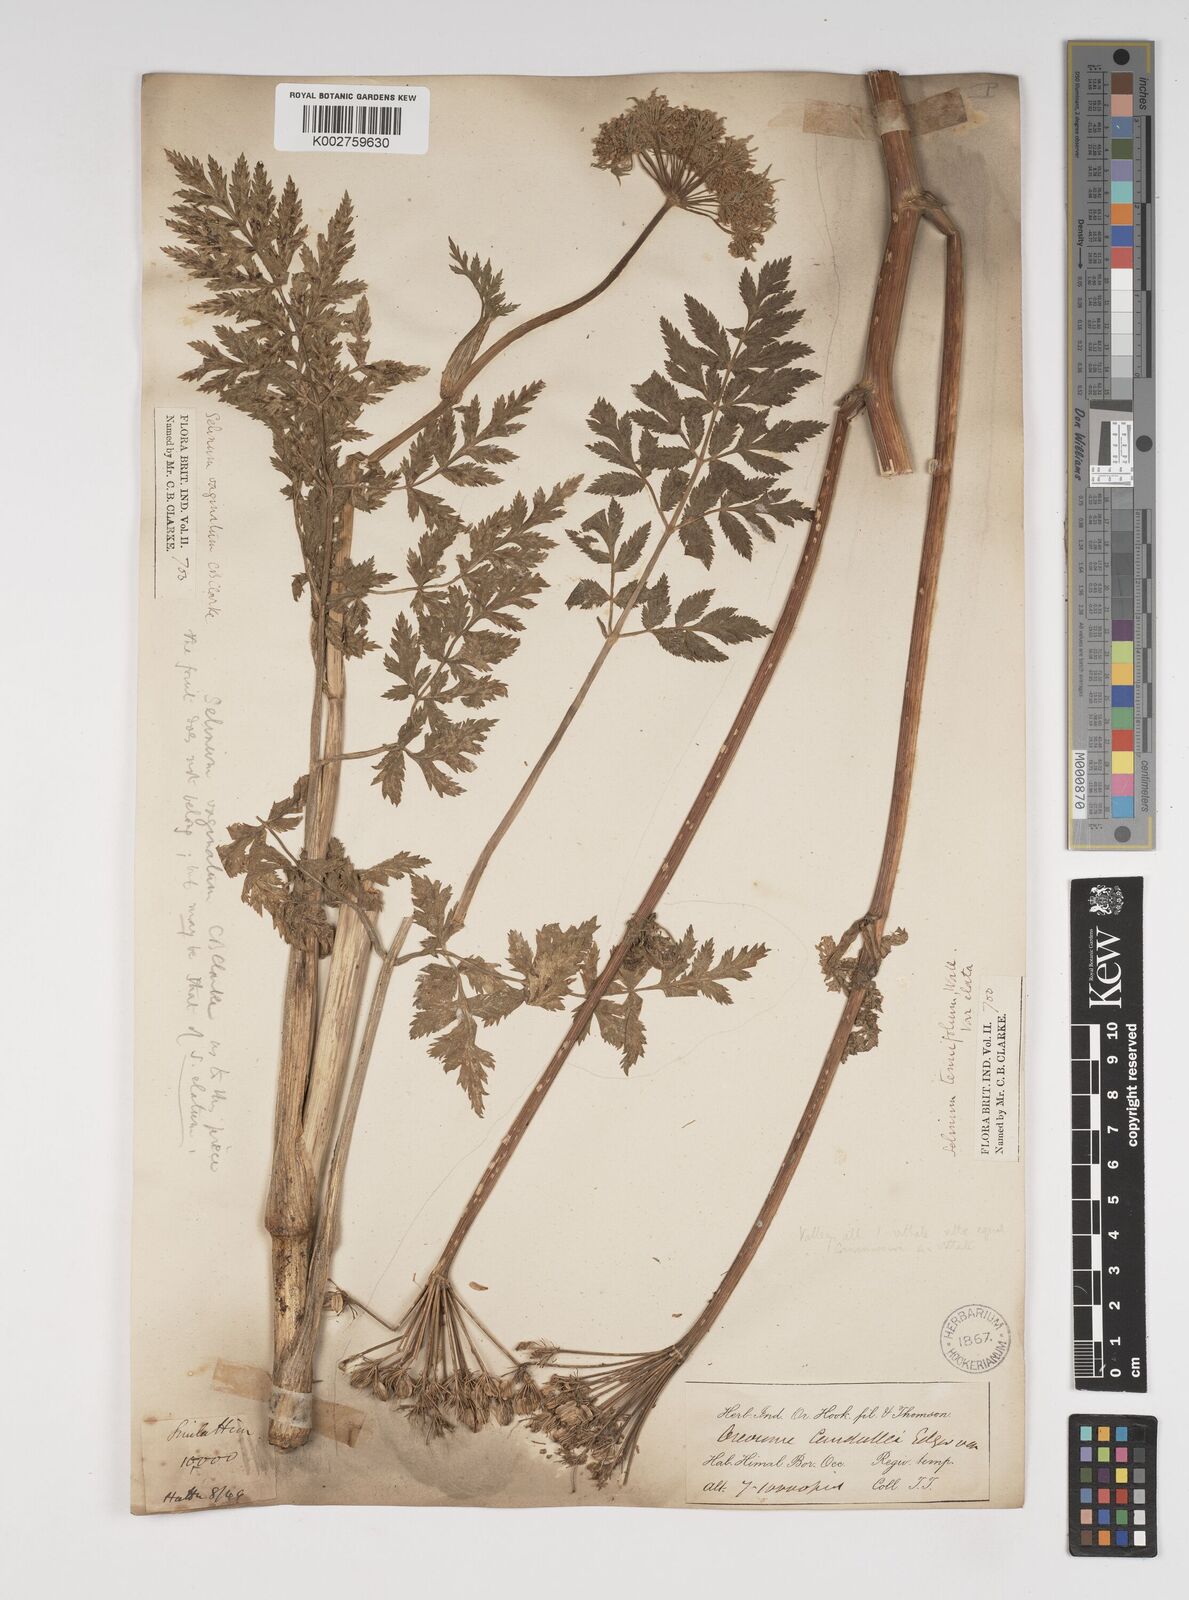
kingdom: Plantae
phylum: Tracheophyta
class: Magnoliopsida
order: Apiales
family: Apiaceae
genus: Selinum
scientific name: Selinum vaginatum
